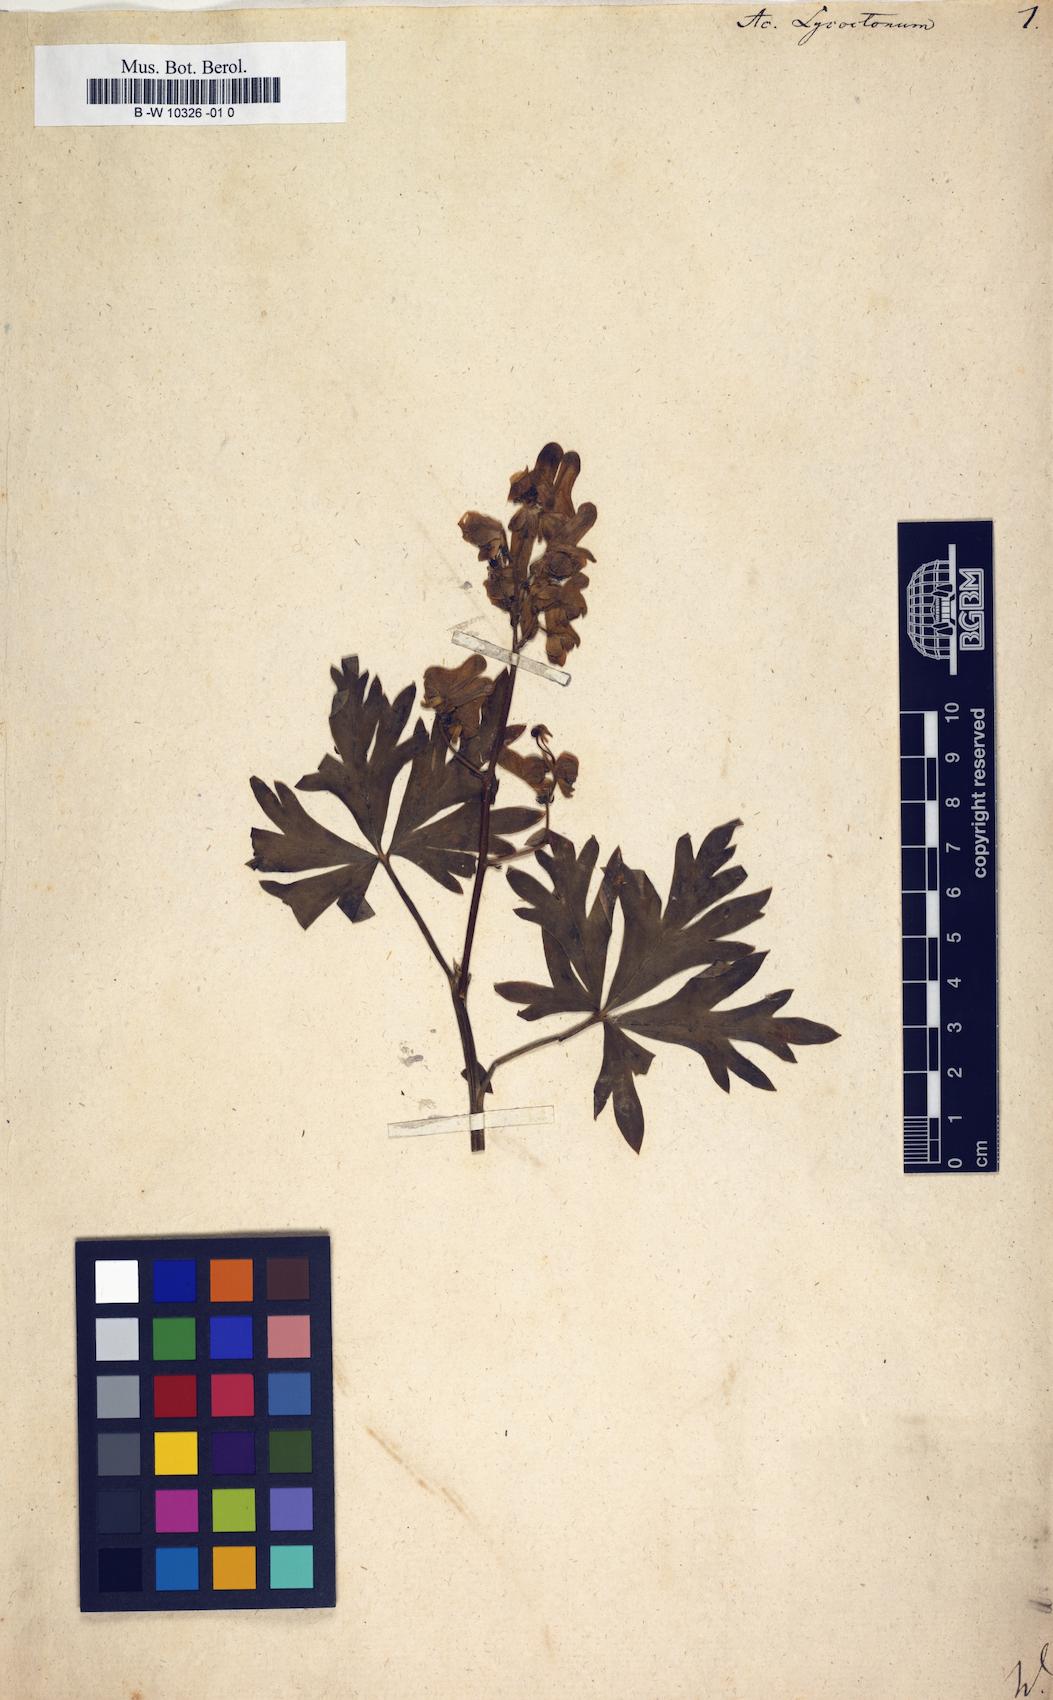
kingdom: Plantae
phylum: Tracheophyta
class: Magnoliopsida
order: Ranunculales
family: Ranunculaceae
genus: Aconitum
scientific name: Aconitum lycoctonum
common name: Wolf's-bane
